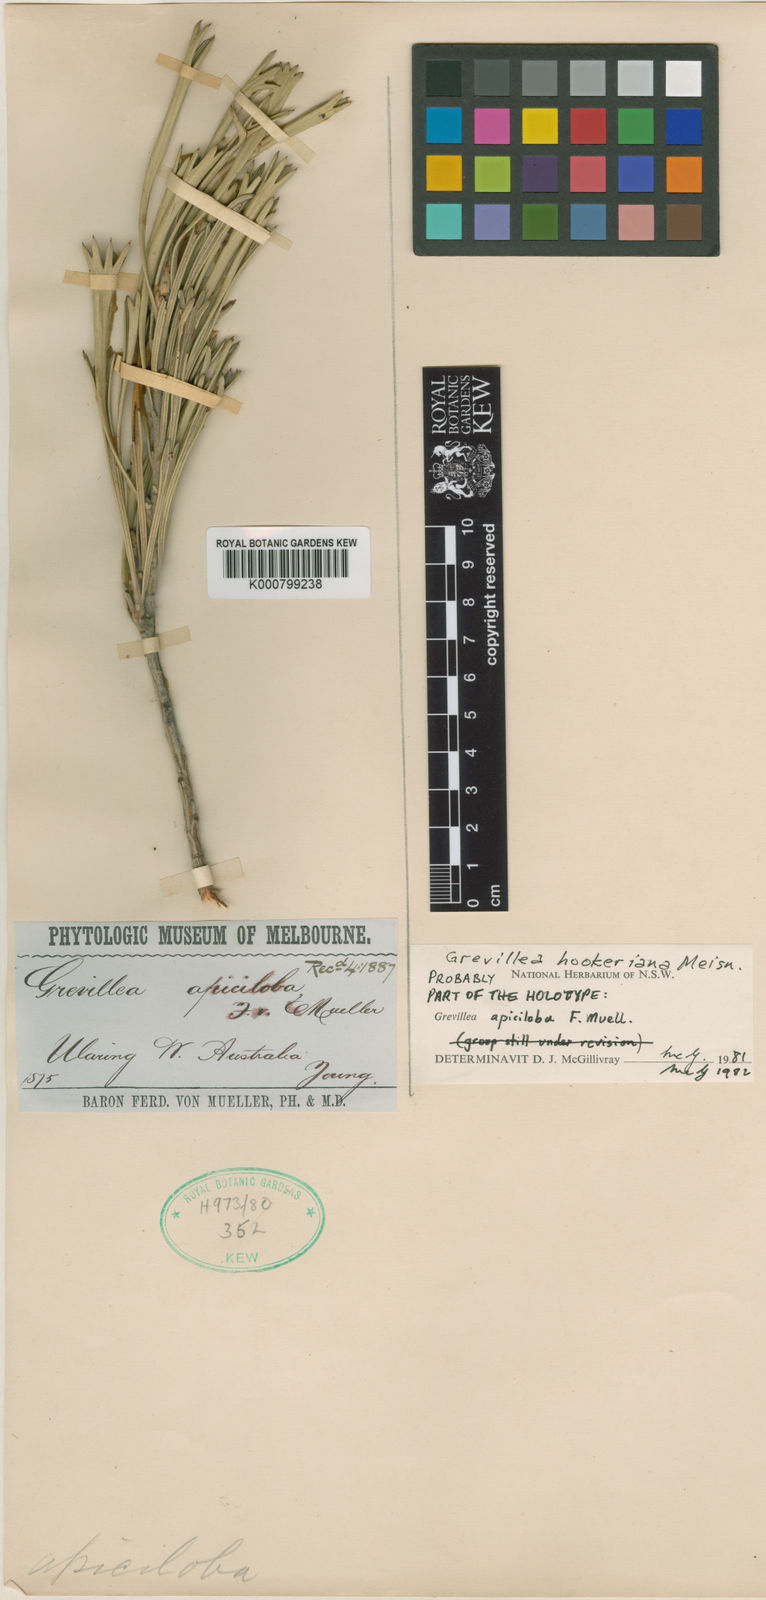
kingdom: Plantae
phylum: Tracheophyta
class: Magnoliopsida
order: Proteales
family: Proteaceae
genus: Grevillea
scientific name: Grevillea hookeriana
